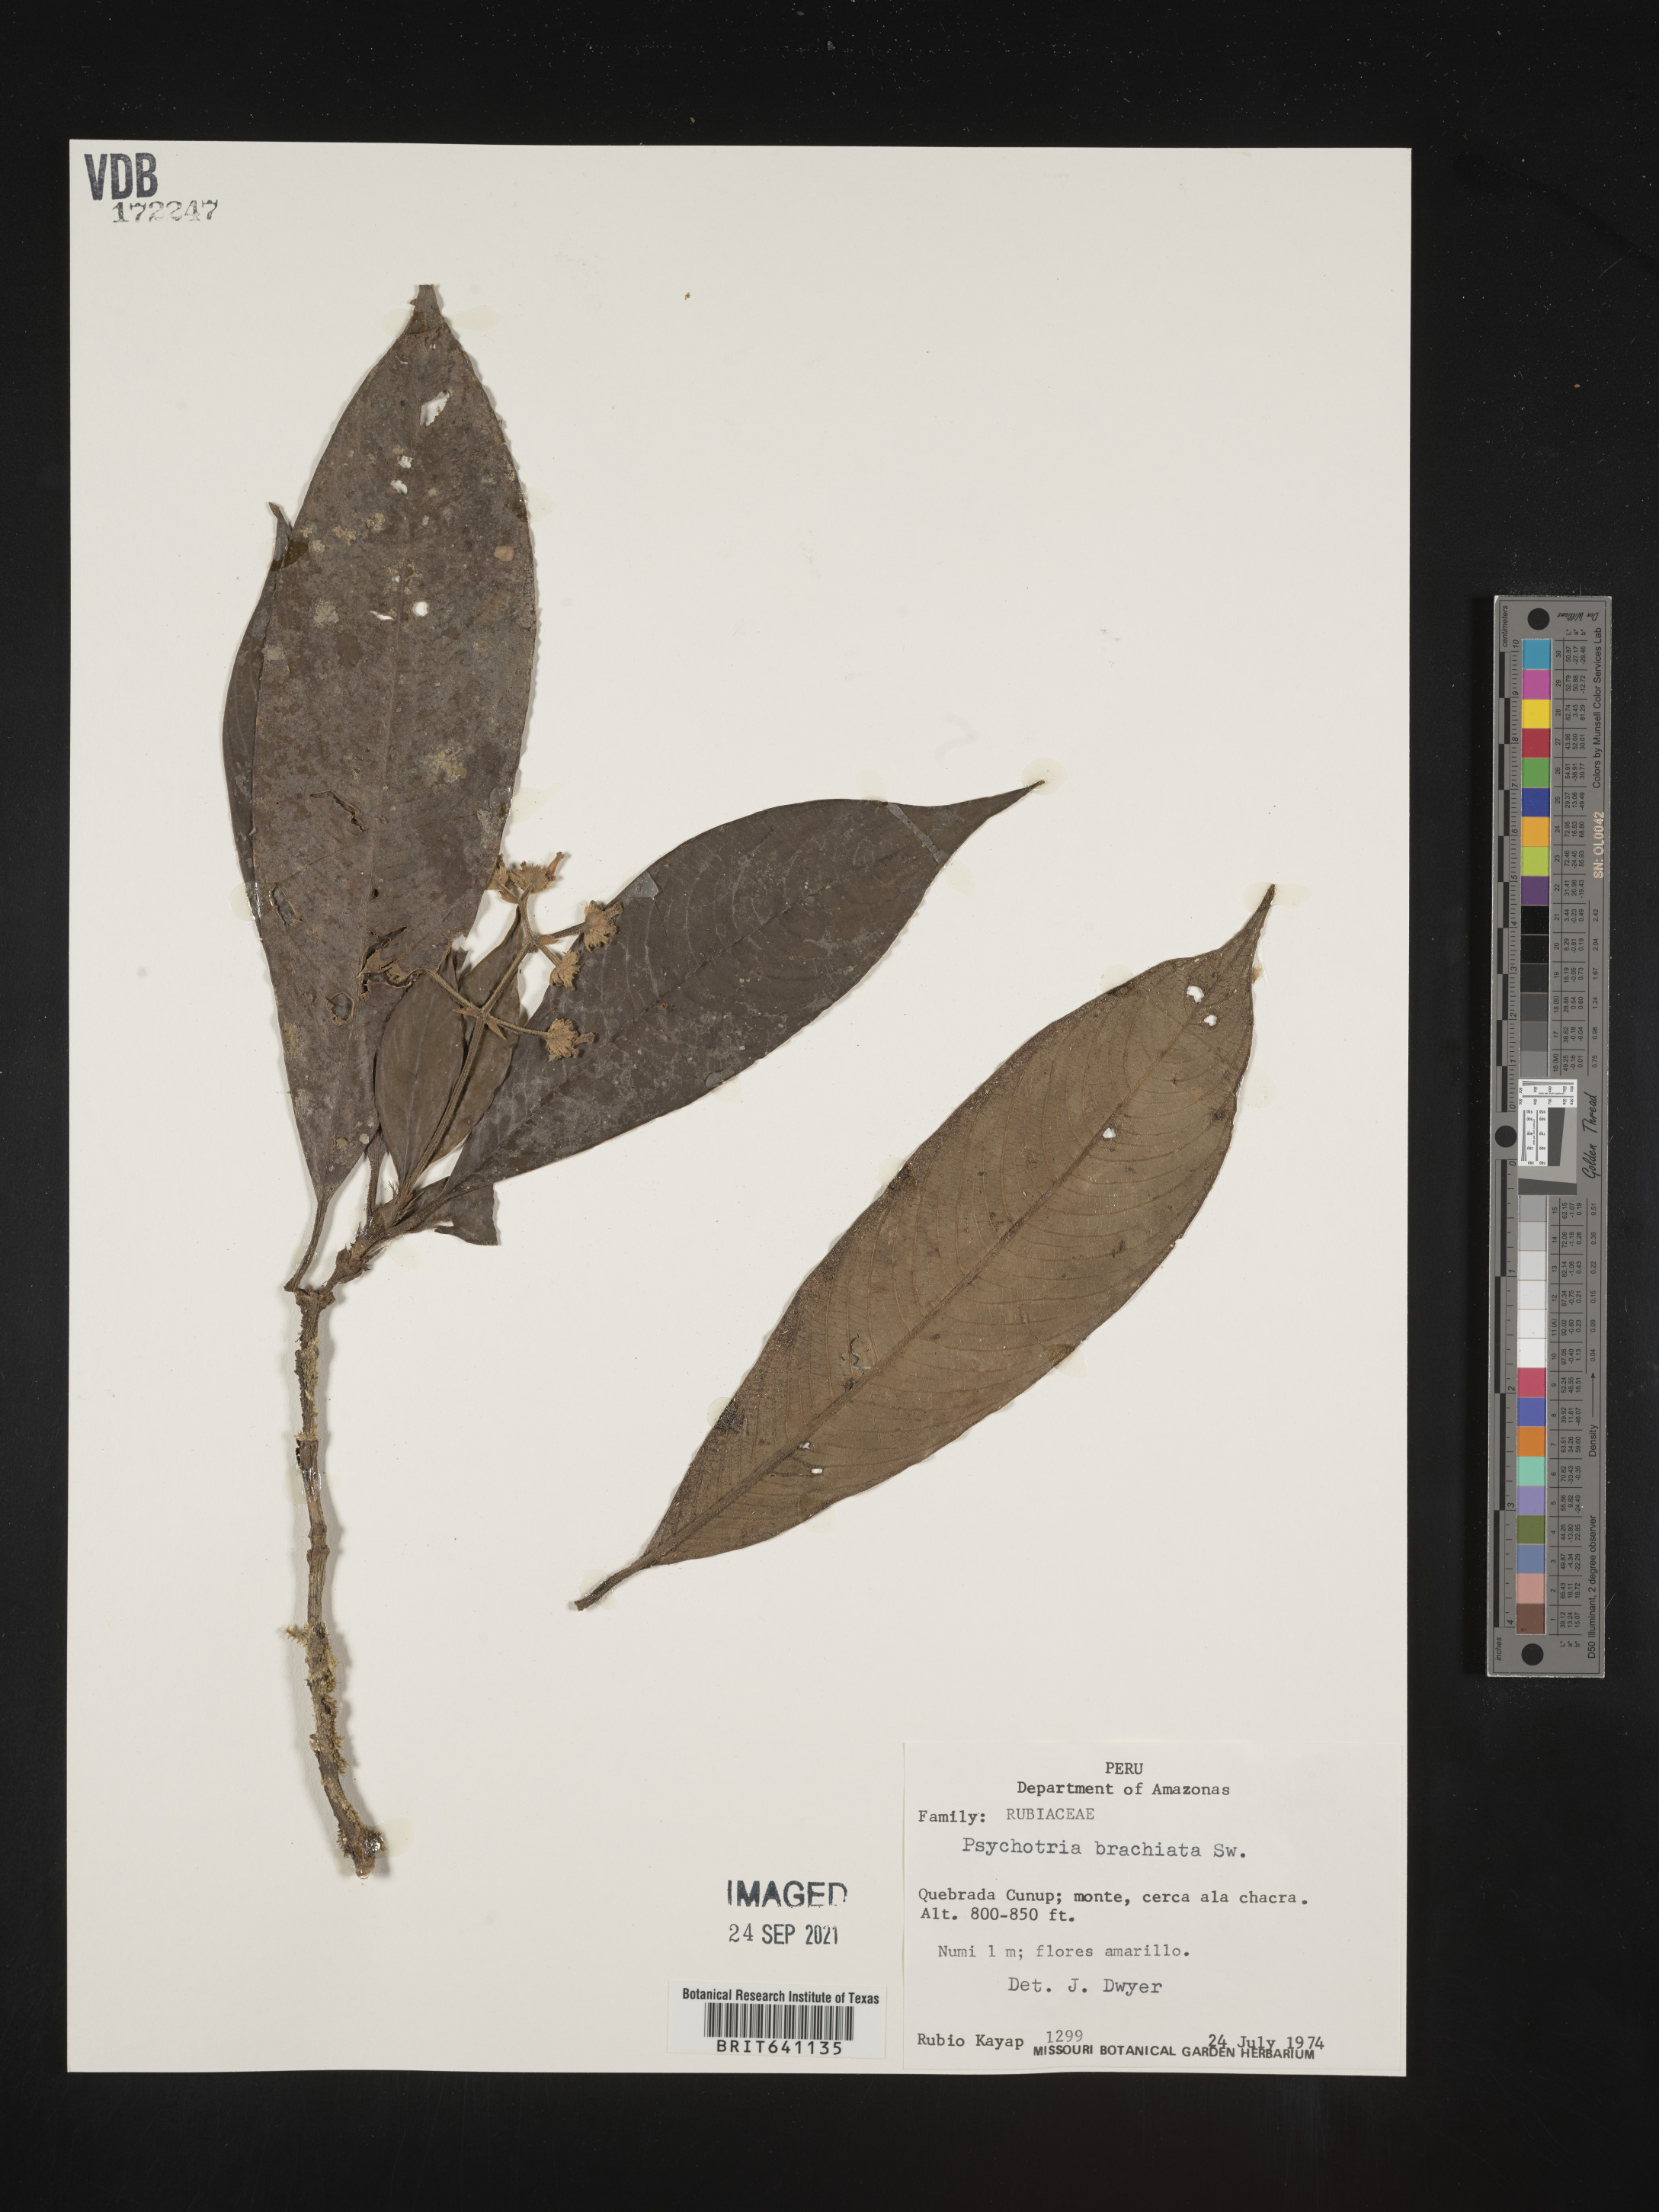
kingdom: Plantae
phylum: Tracheophyta
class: Magnoliopsida
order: Gentianales
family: Rubiaceae
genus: Psychotria
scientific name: Psychotria
